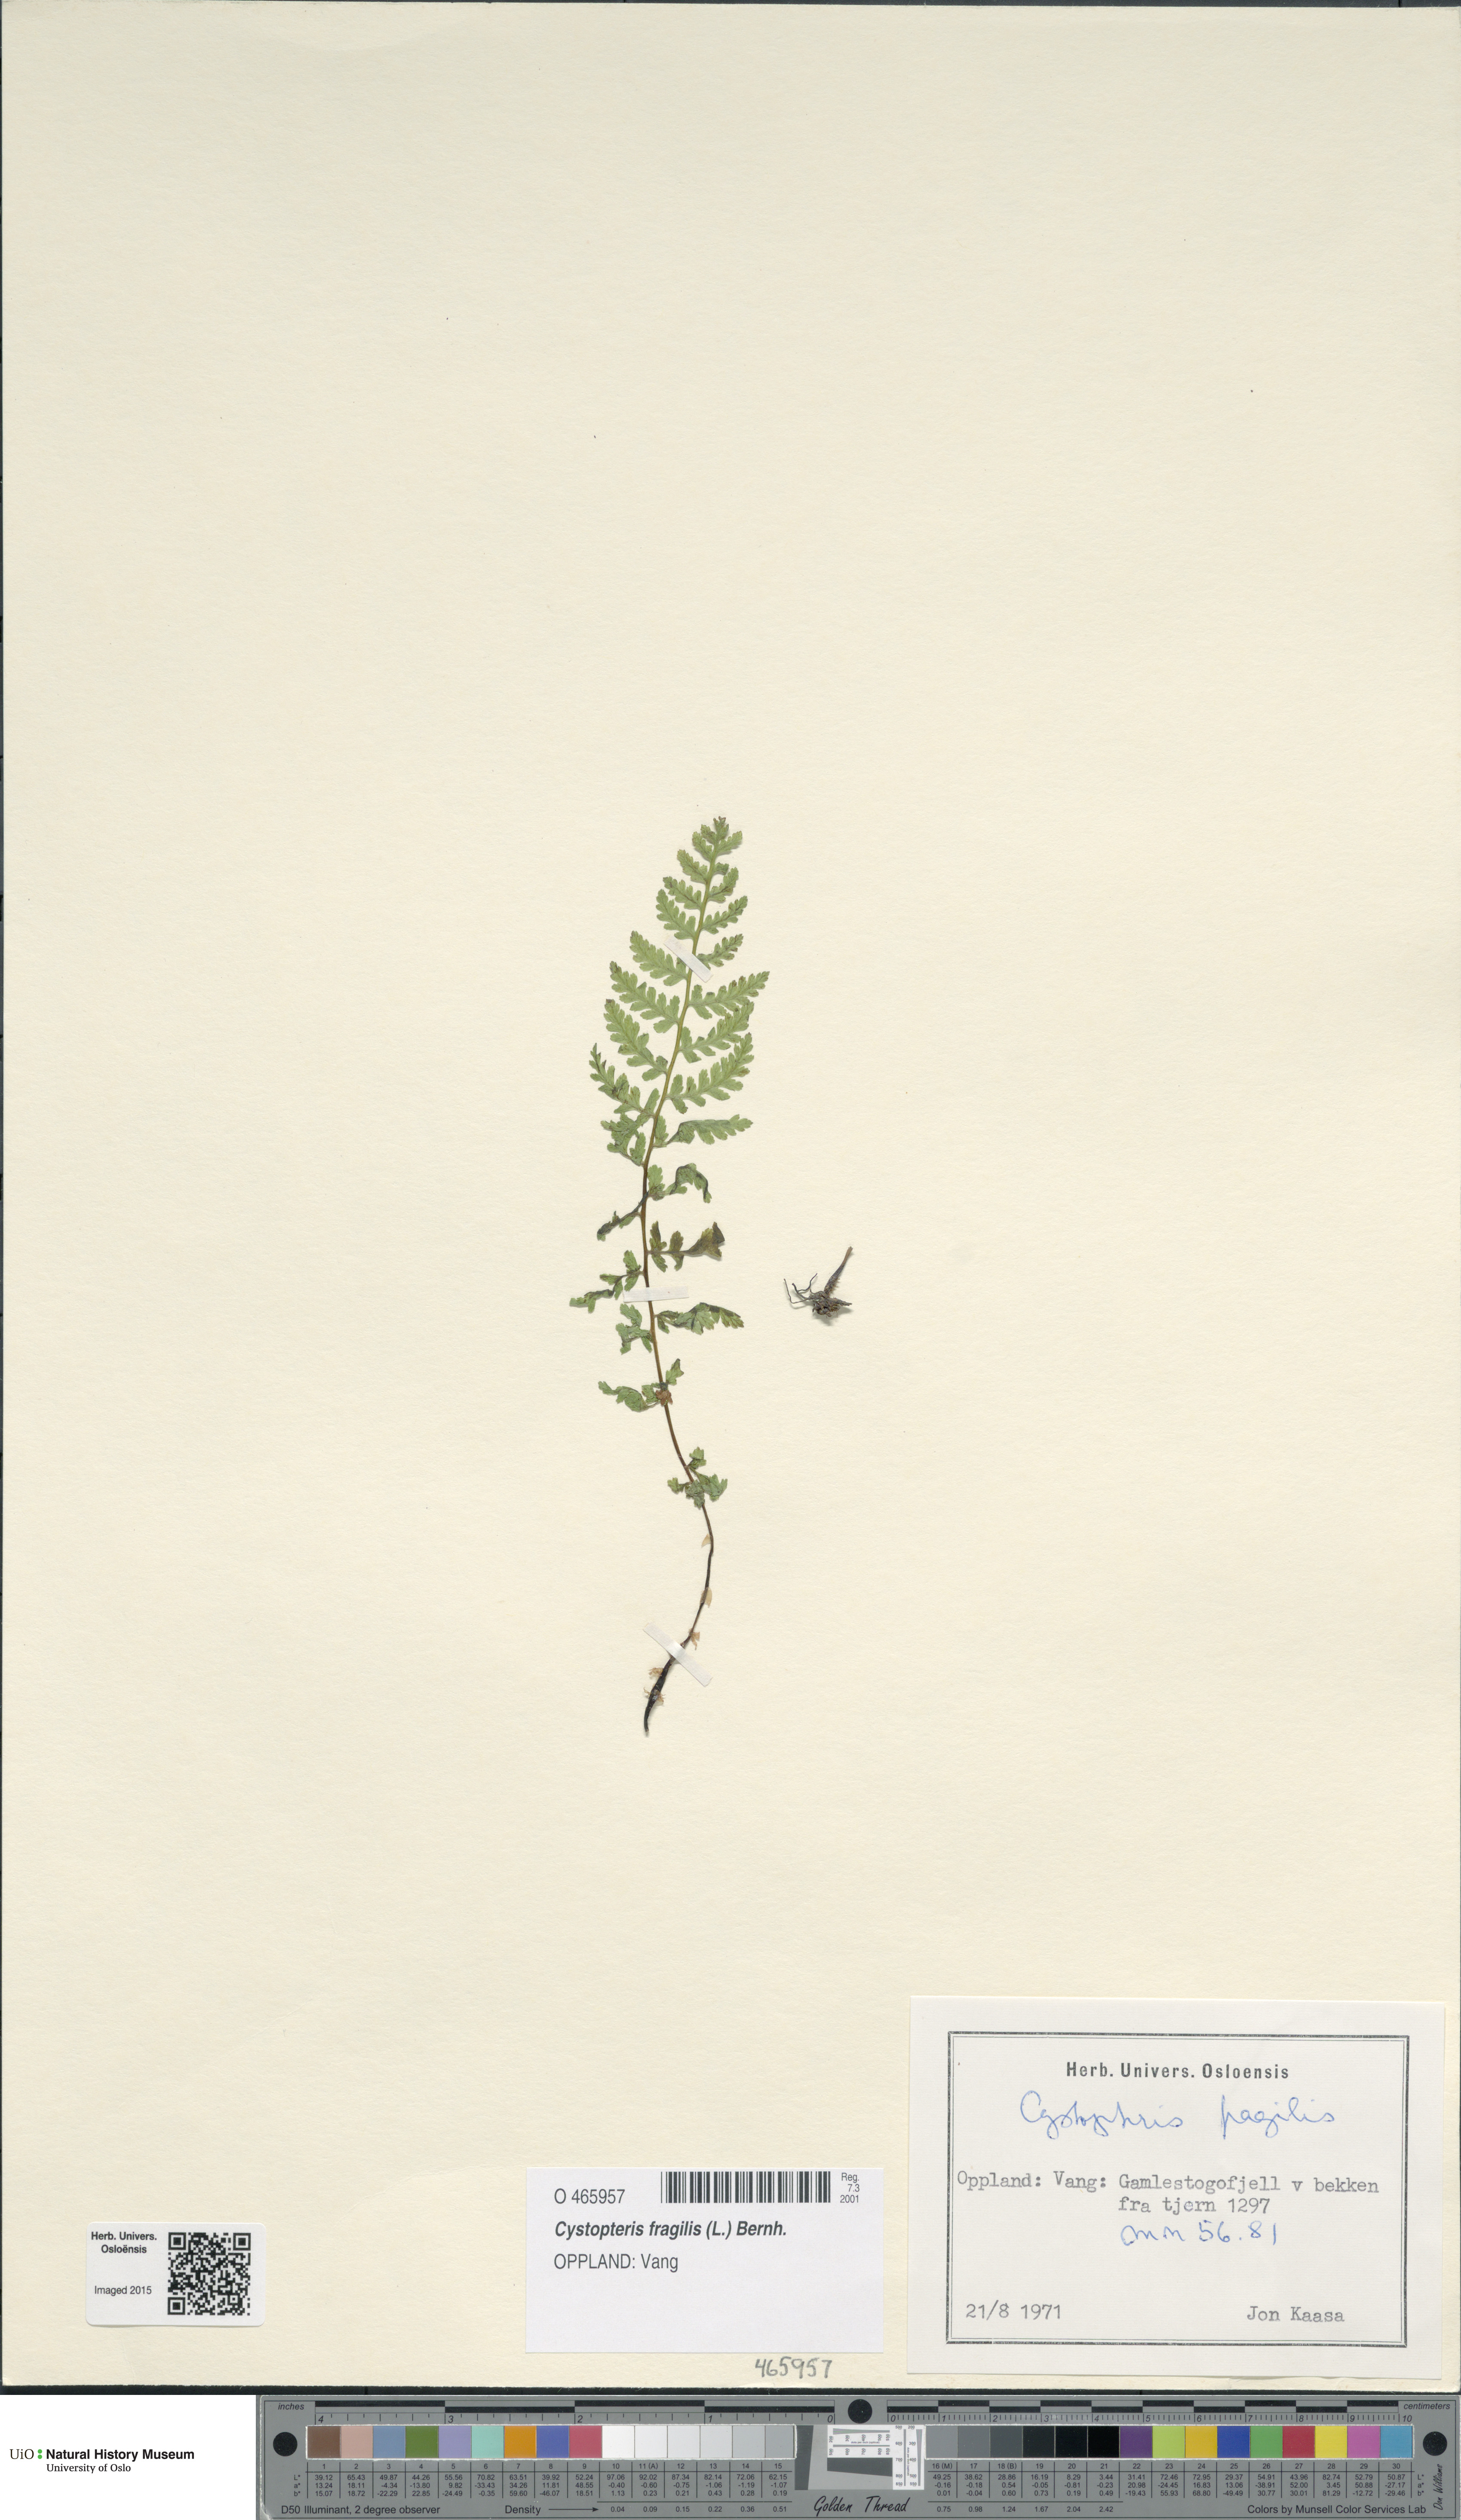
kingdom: Plantae
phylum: Tracheophyta
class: Polypodiopsida
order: Polypodiales
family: Cystopteridaceae
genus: Cystopteris
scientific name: Cystopteris fragilis
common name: Brittle bladder fern
